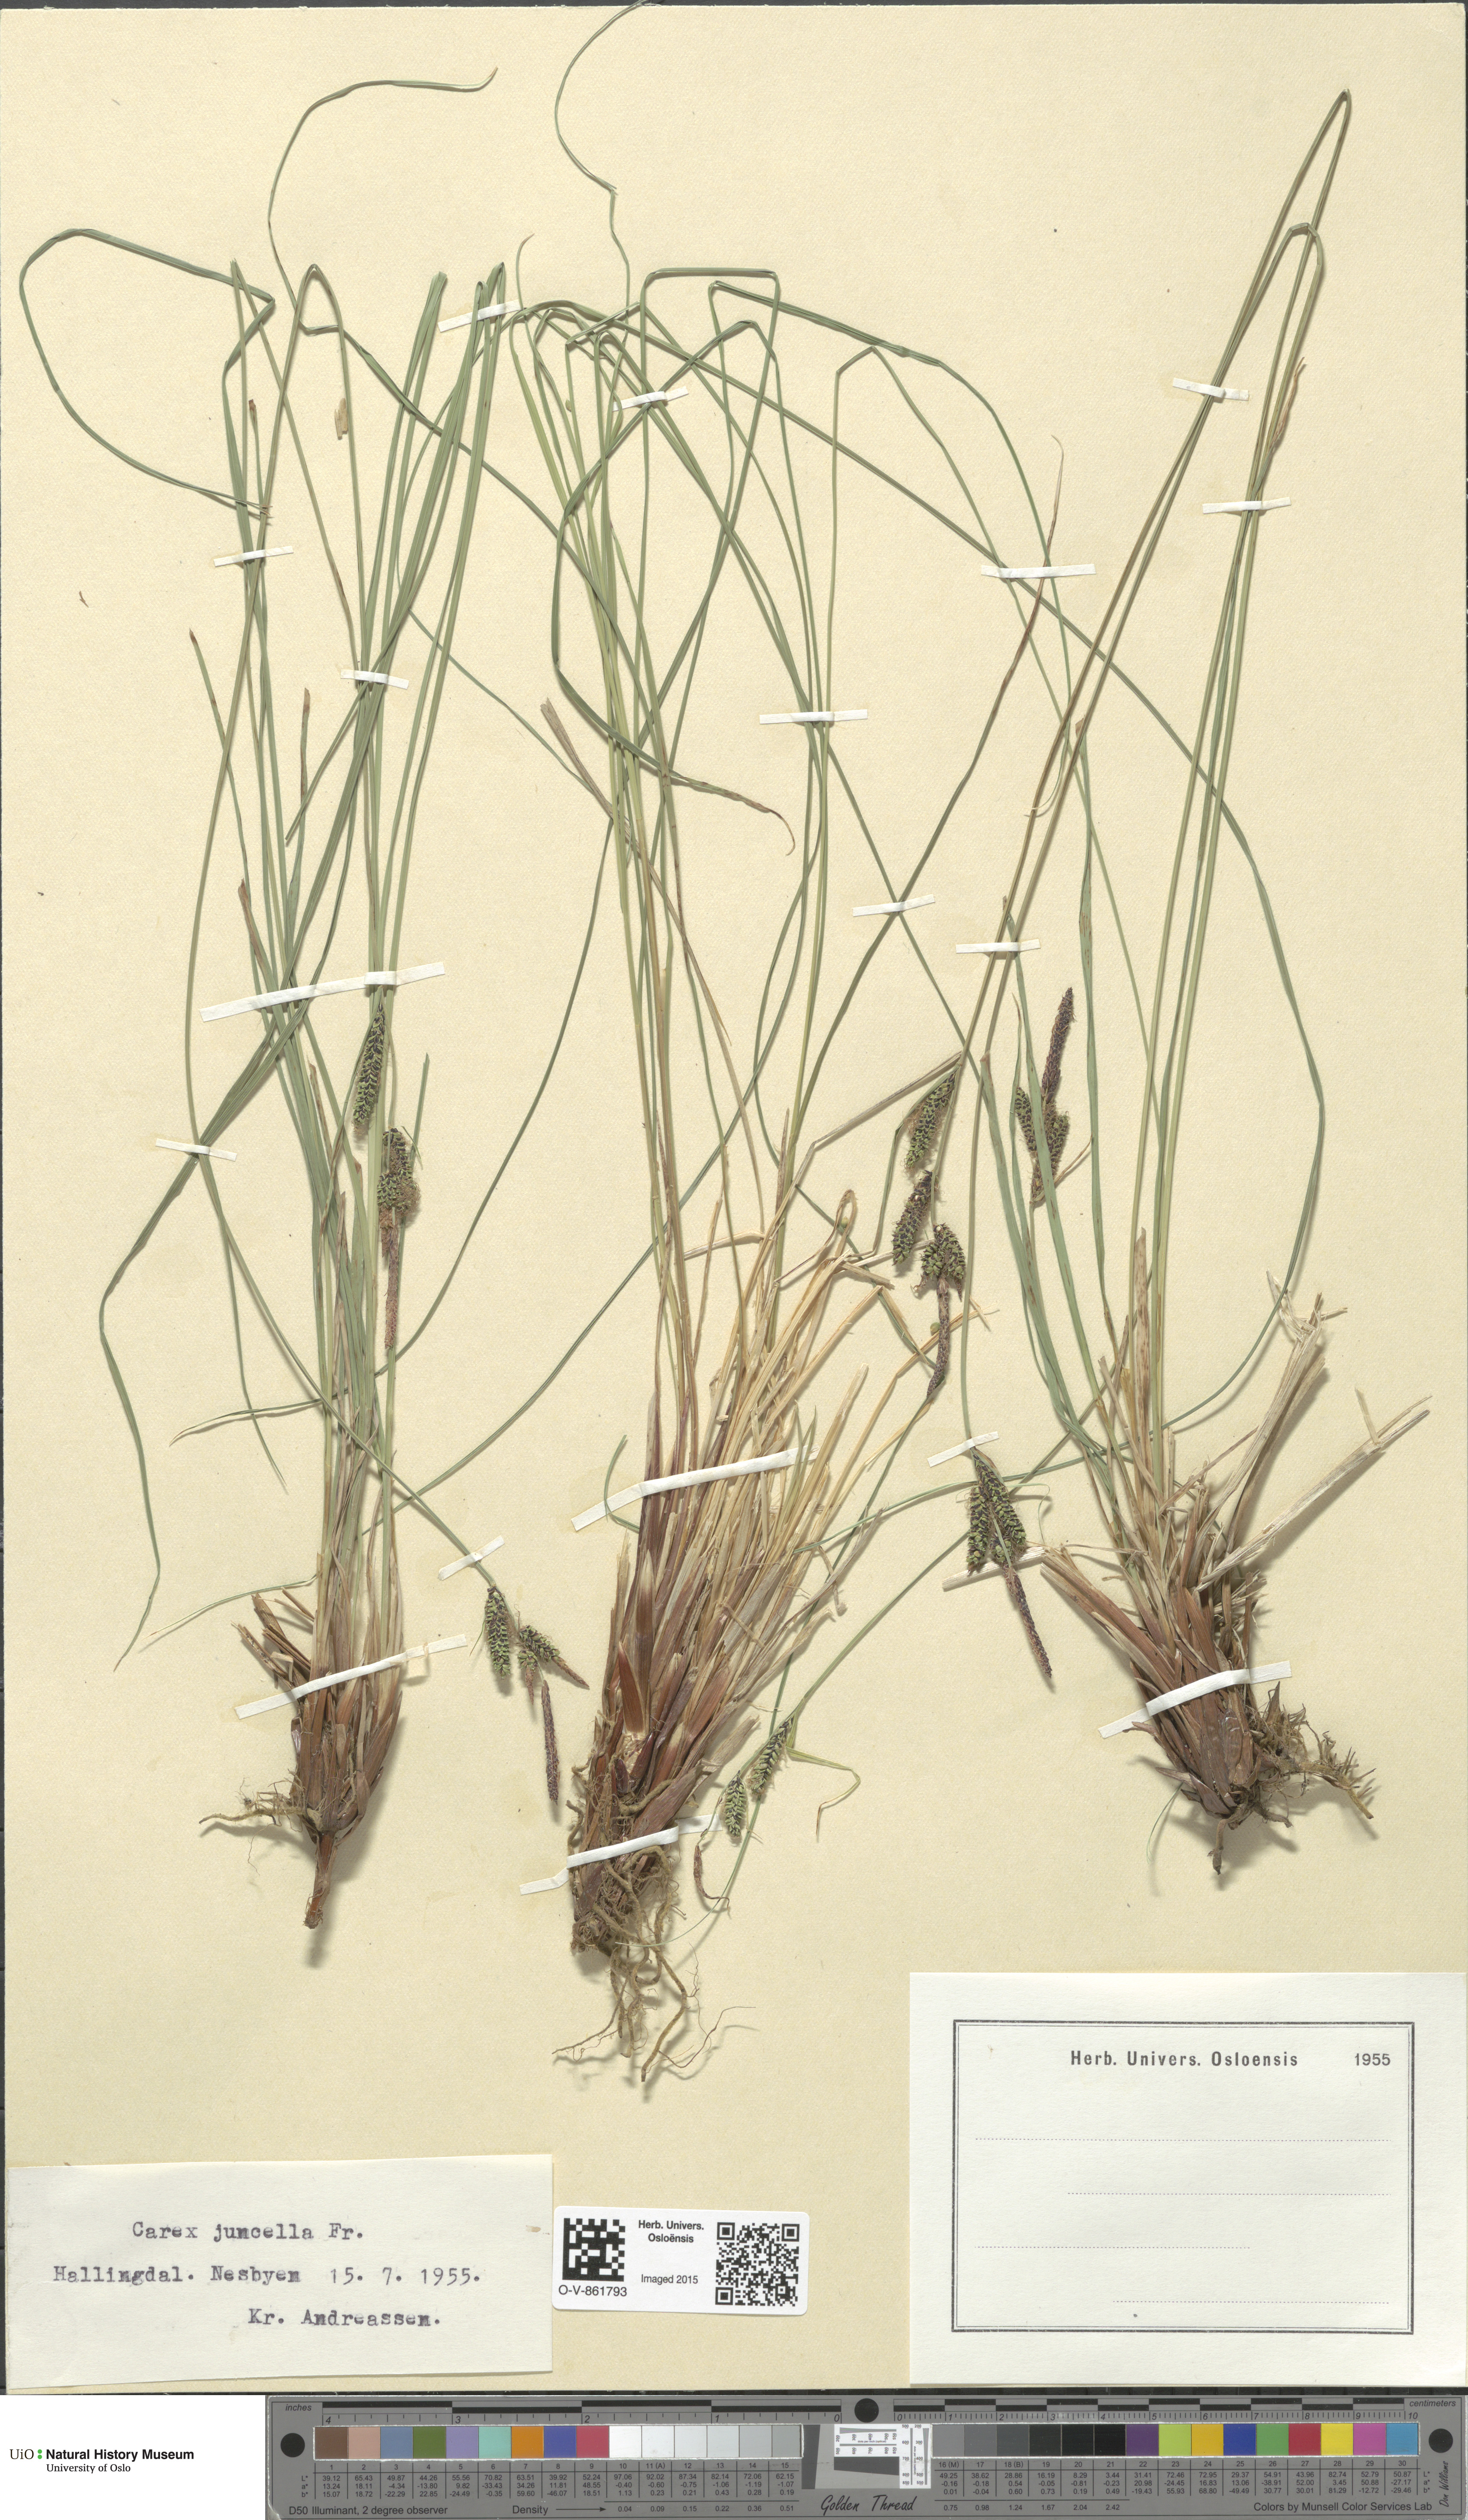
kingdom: Plantae
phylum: Tracheophyta
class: Liliopsida
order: Poales
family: Cyperaceae
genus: Carex
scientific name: Carex nigra
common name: Common sedge
